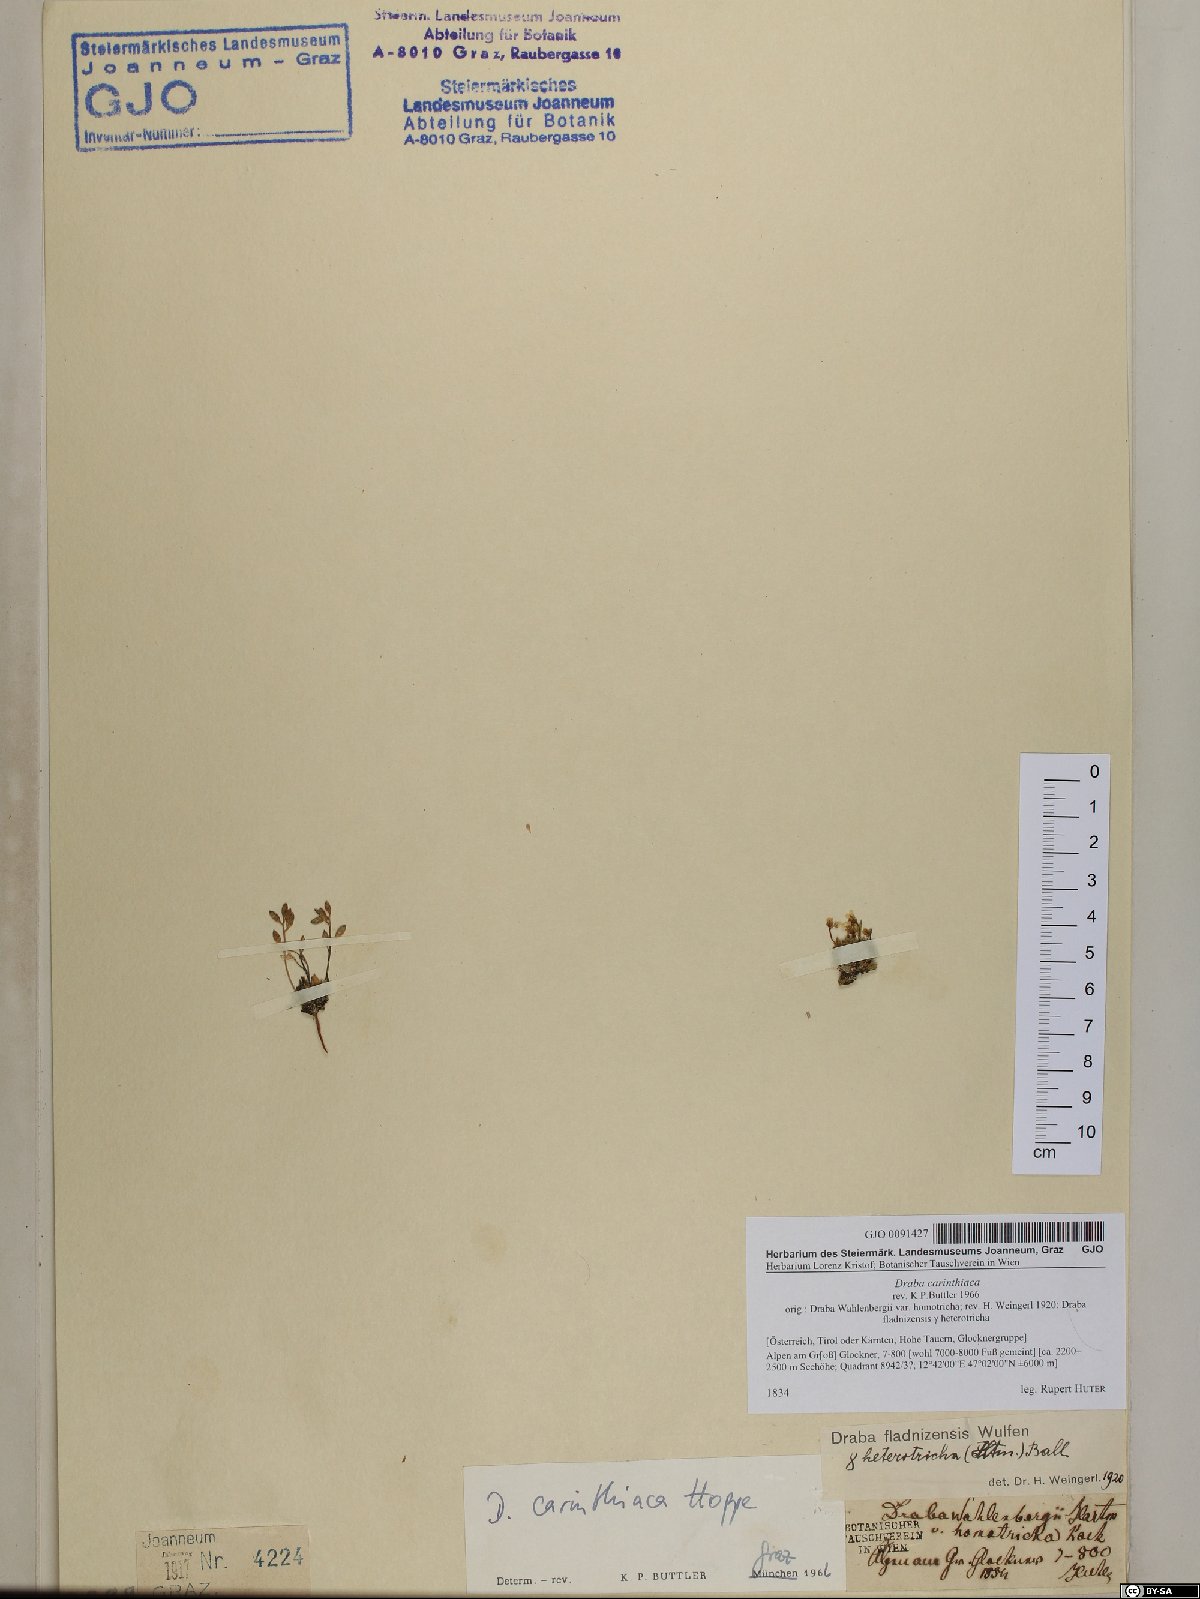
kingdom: Plantae
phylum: Tracheophyta
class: Magnoliopsida
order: Brassicales
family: Brassicaceae
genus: Draba
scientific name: Draba siliquosa
